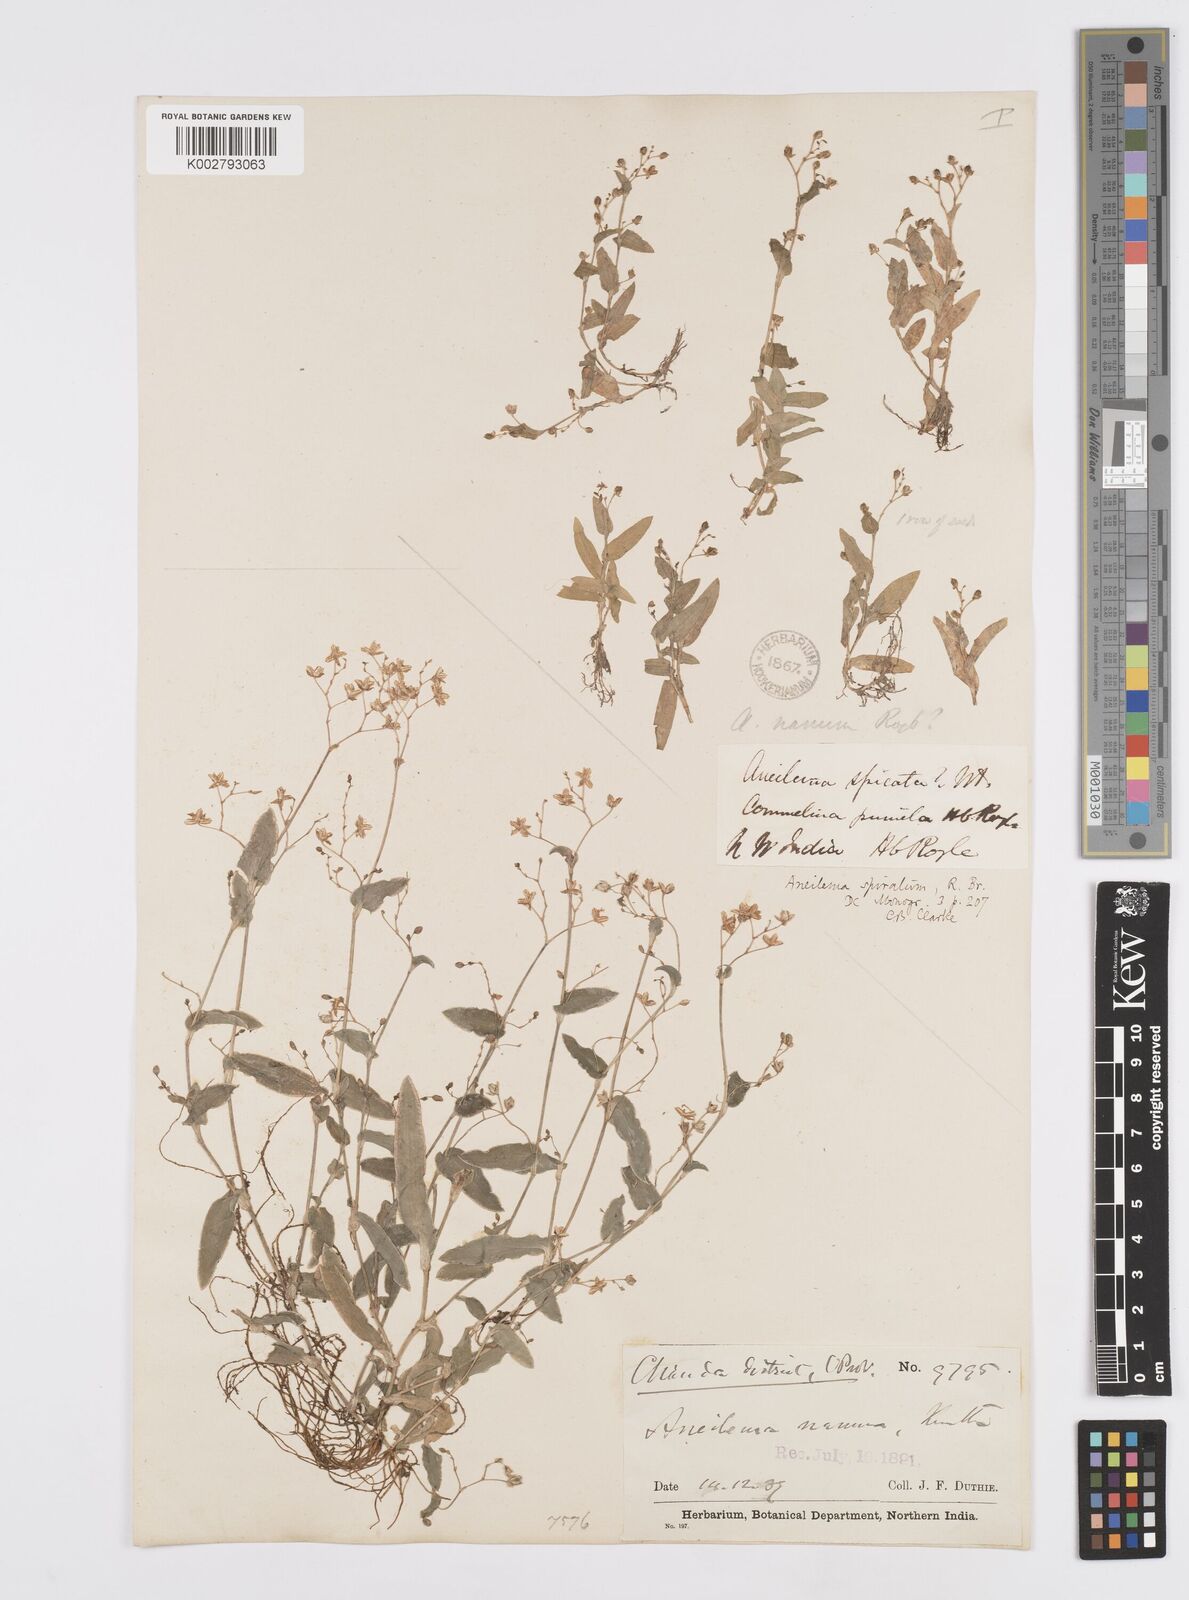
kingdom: Plantae
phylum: Tracheophyta
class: Liliopsida
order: Commelinales
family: Commelinaceae
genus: Murdannia
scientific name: Murdannia spirata
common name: Asiatic dewflower
